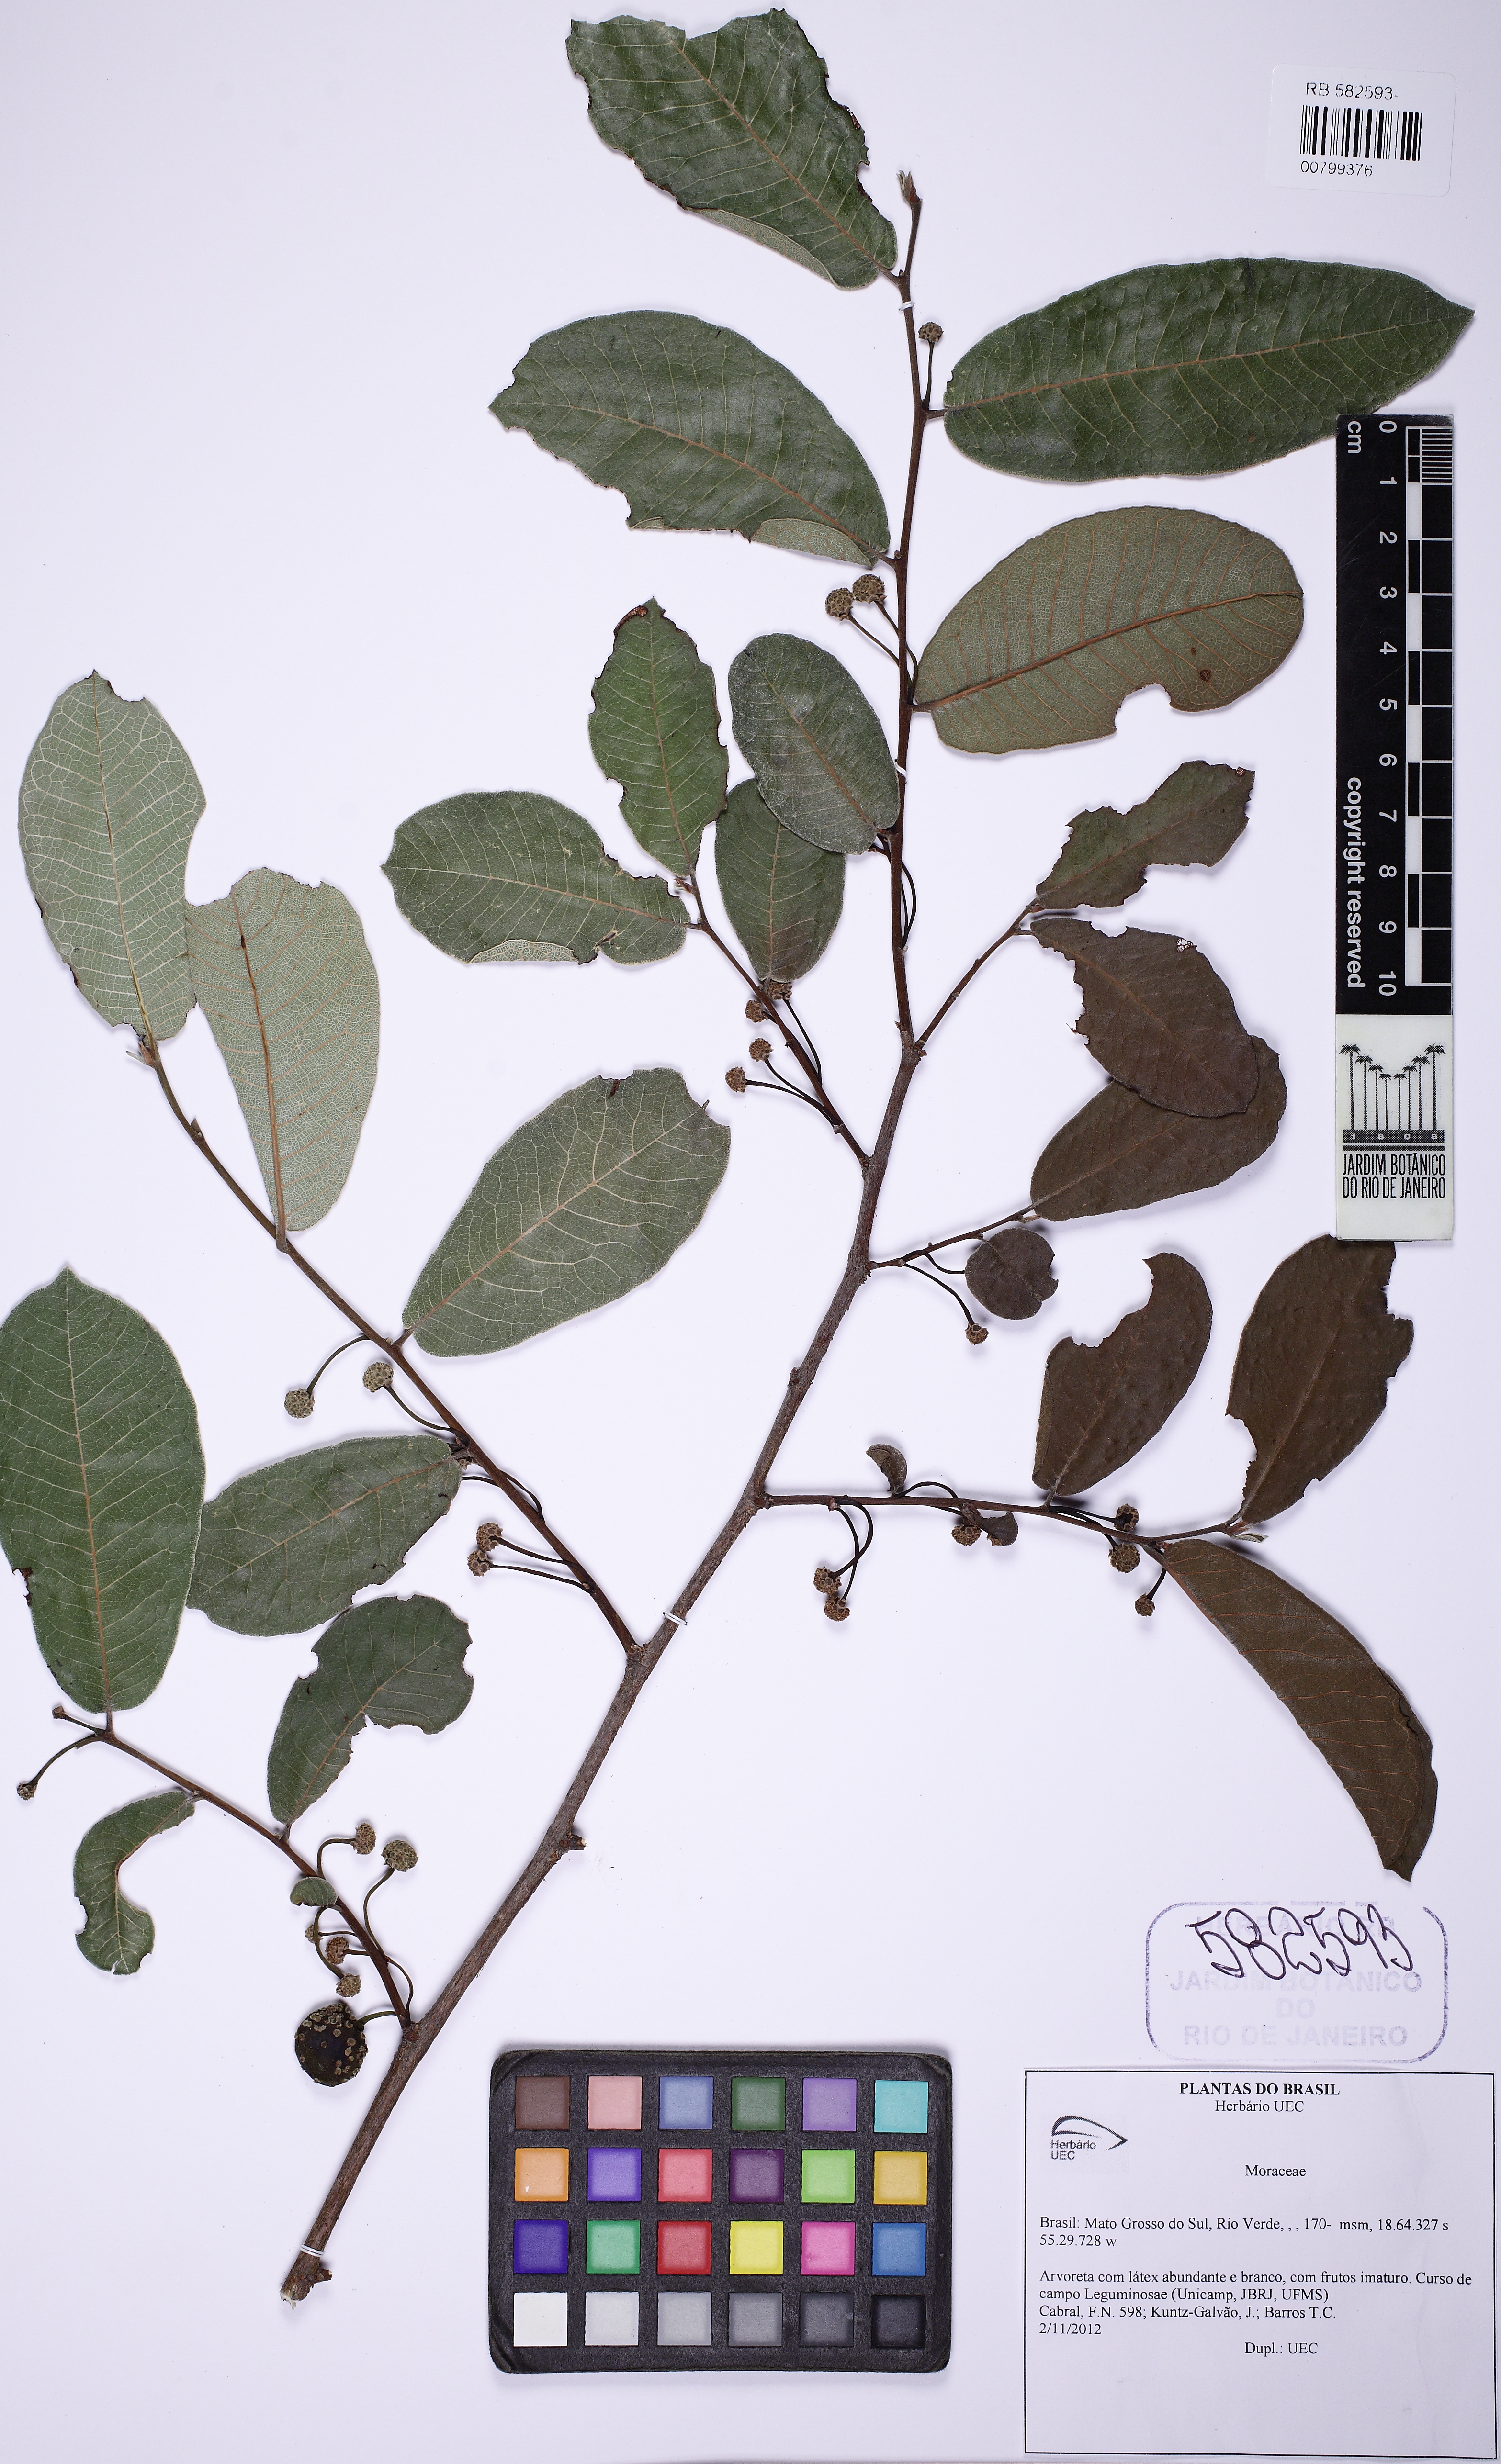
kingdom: Plantae
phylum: Tracheophyta
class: Magnoliopsida
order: Rosales
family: Moraceae
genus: Brosimum
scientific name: Brosimum gaudichaudii
